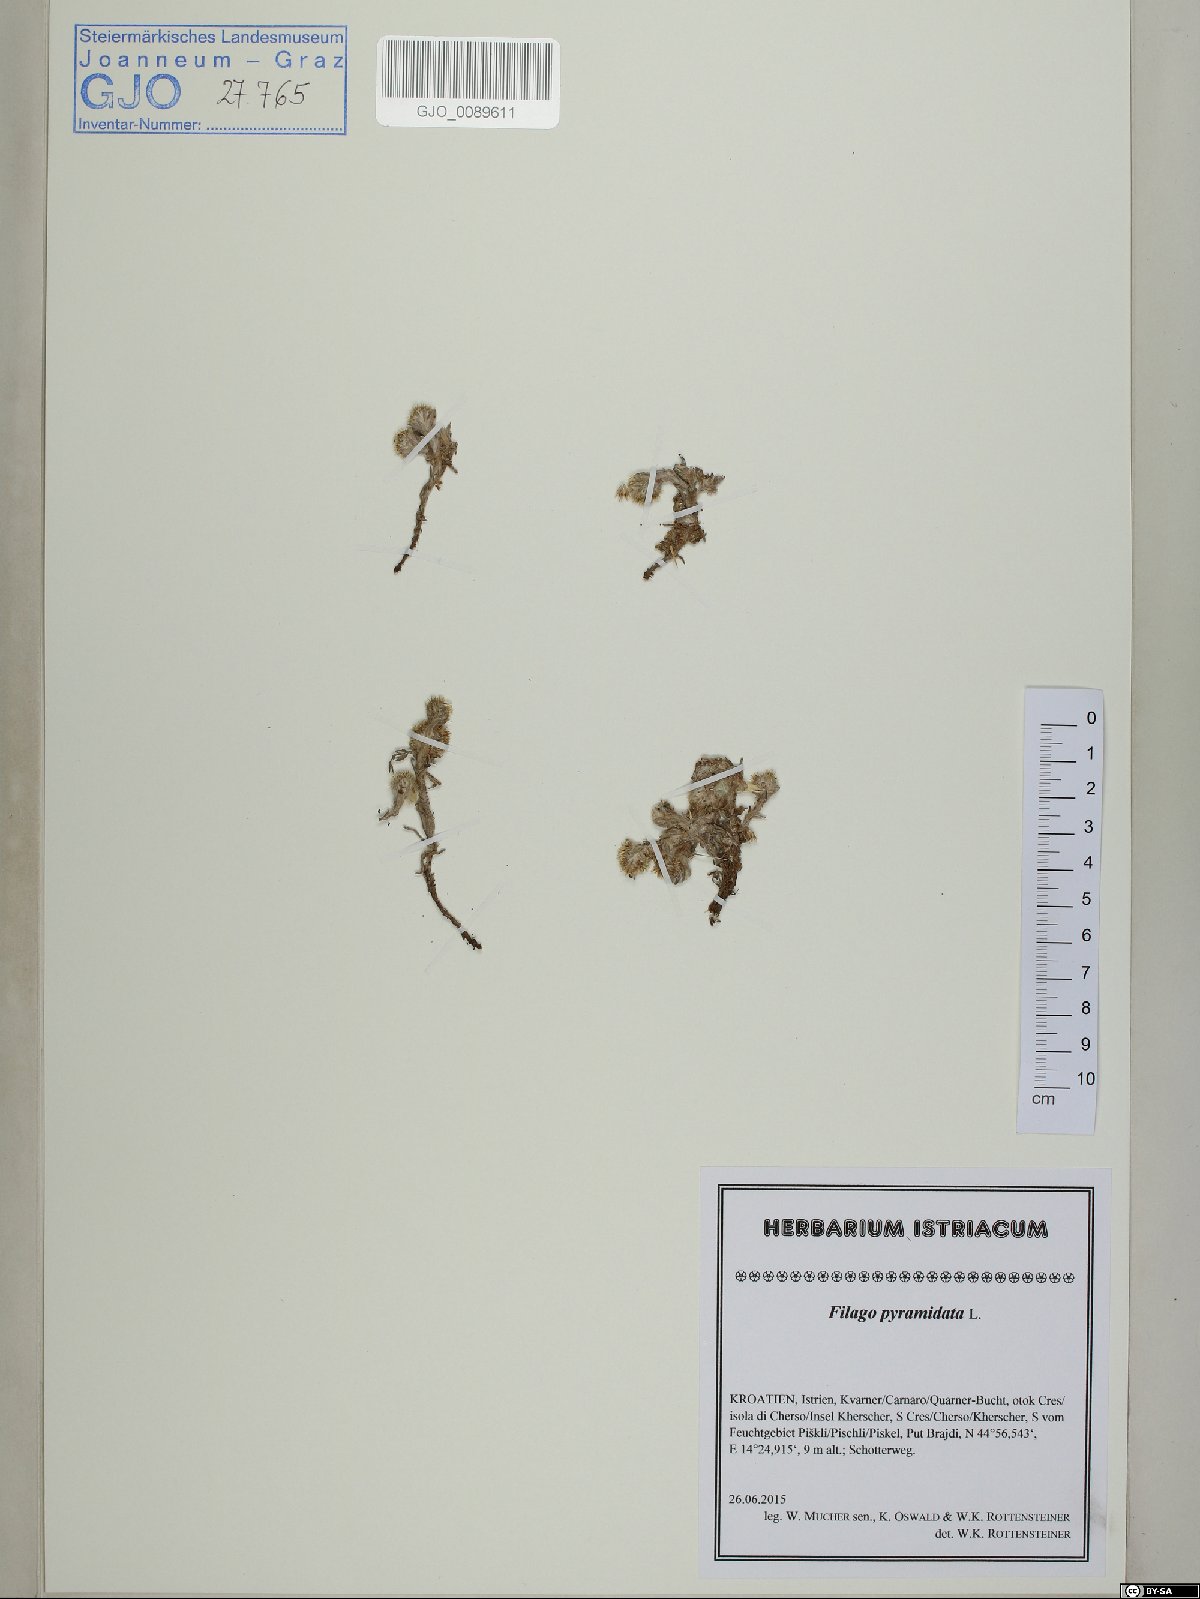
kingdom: Plantae
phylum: Tracheophyta
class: Magnoliopsida
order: Asterales
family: Asteraceae
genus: Filago
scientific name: Filago pyramidata
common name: Broad-leaved cudweed
